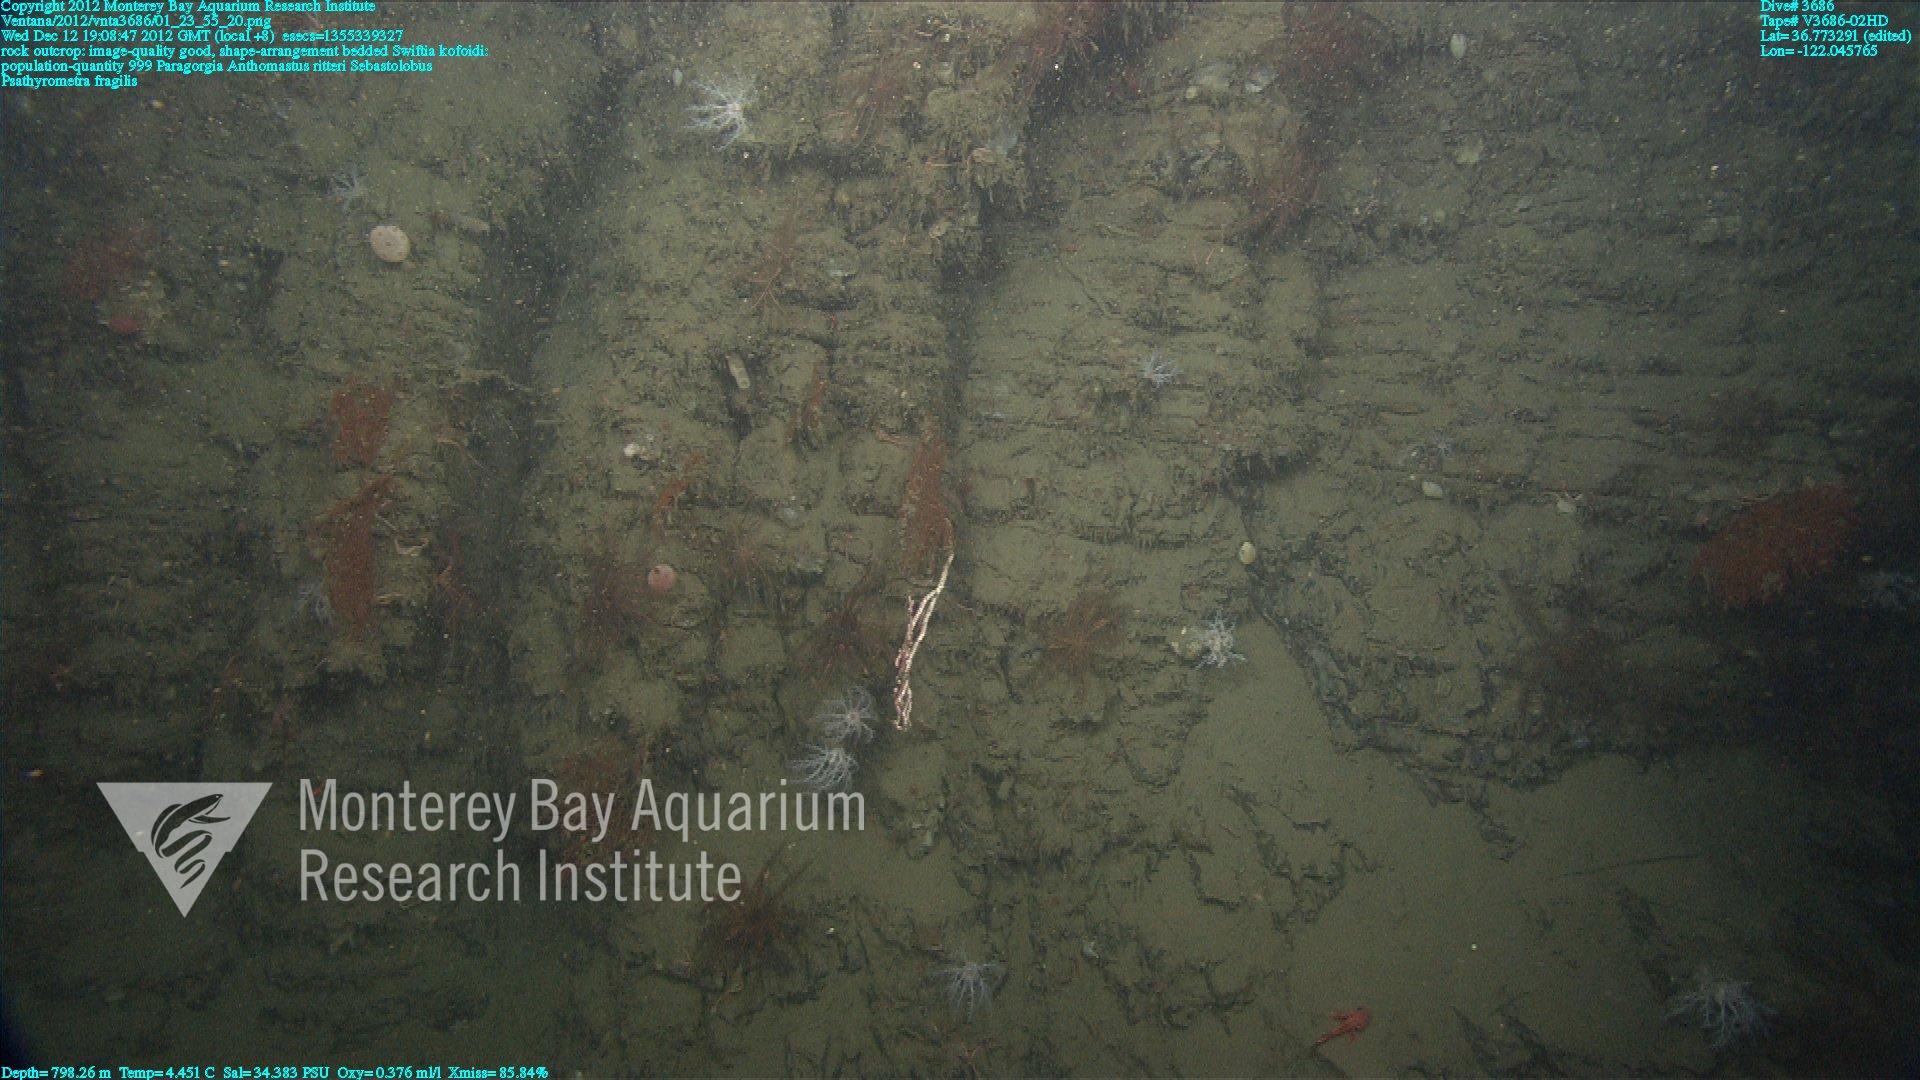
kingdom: Animalia
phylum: Cnidaria
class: Anthozoa
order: Scleralcyonacea
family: Coralliidae
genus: Heteropolypus
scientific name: Heteropolypus ritteri
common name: Ritter's soft coral
